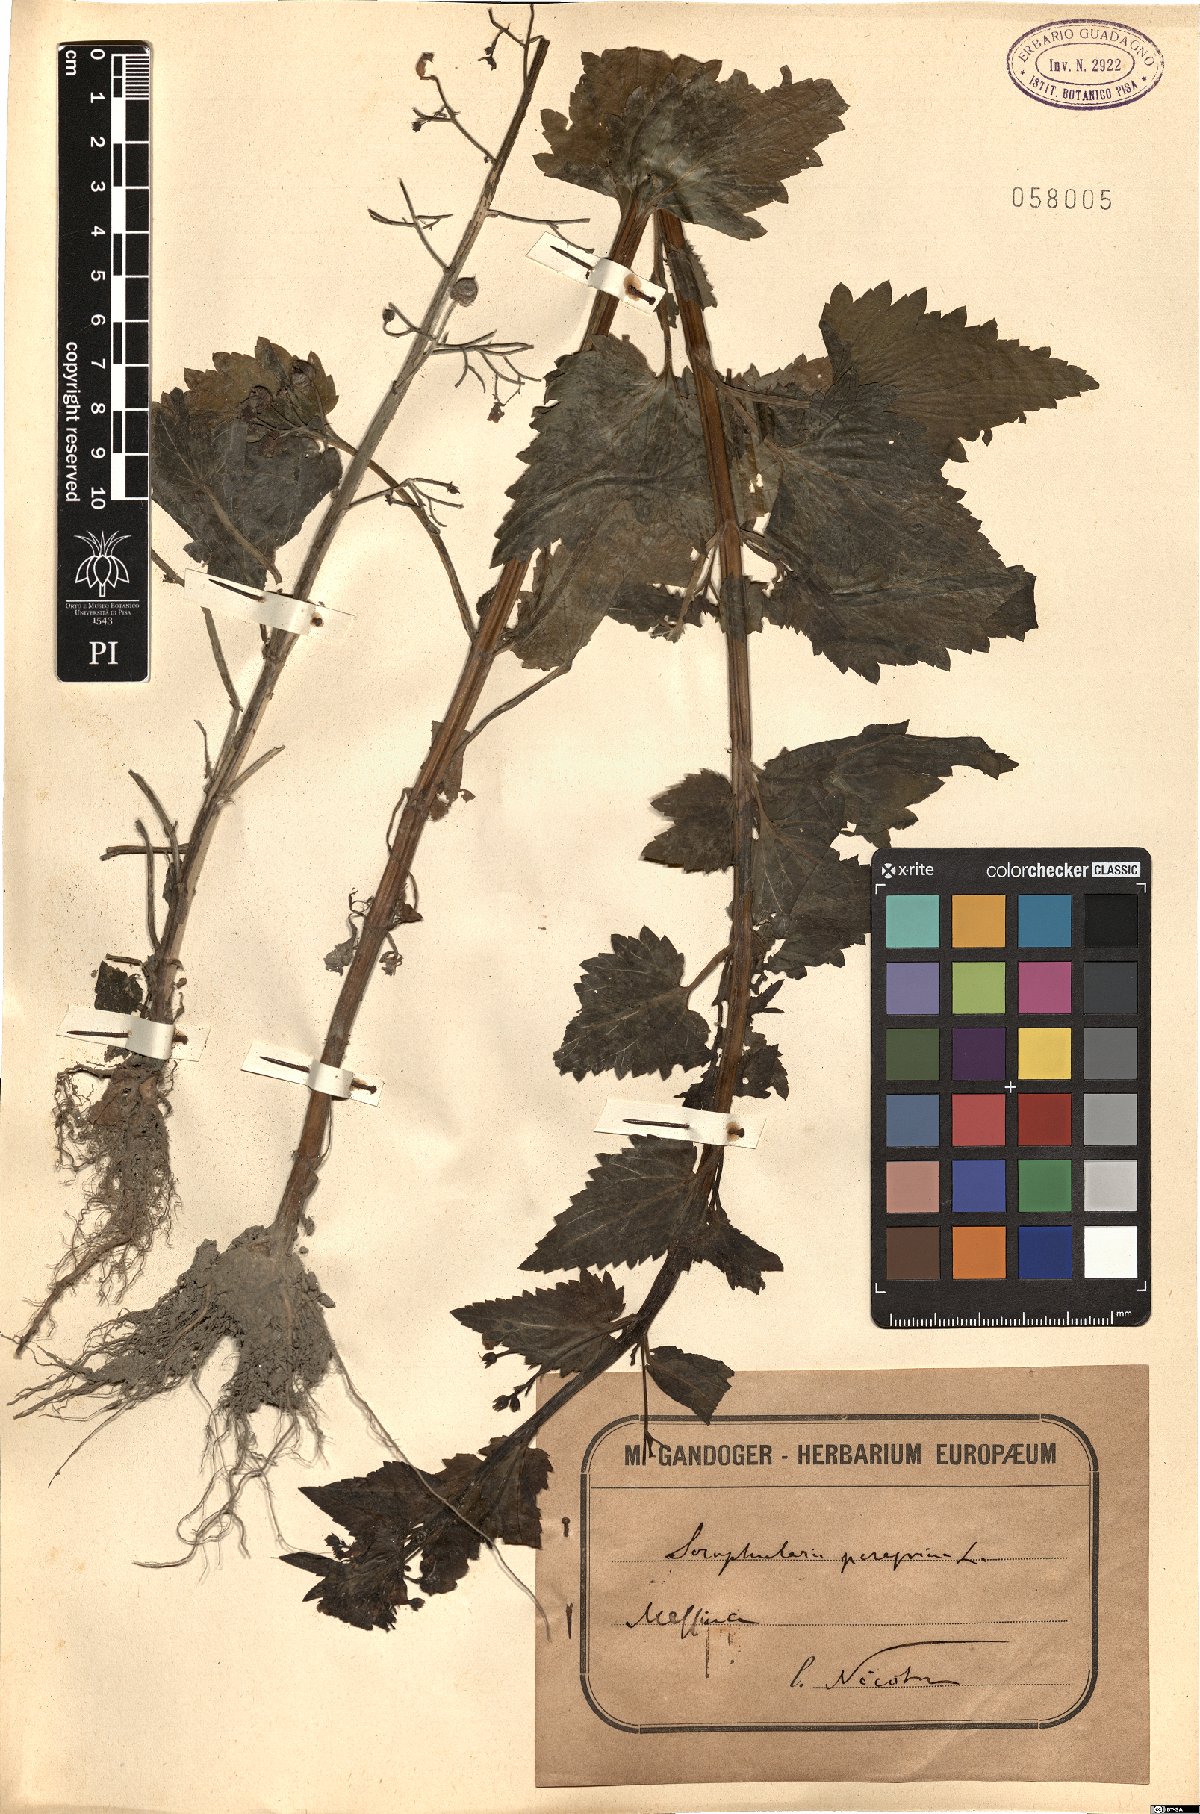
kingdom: Plantae
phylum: Tracheophyta
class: Magnoliopsida
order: Lamiales
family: Scrophulariaceae
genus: Scrophularia
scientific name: Scrophularia peregrina
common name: Mediterranean figwort
